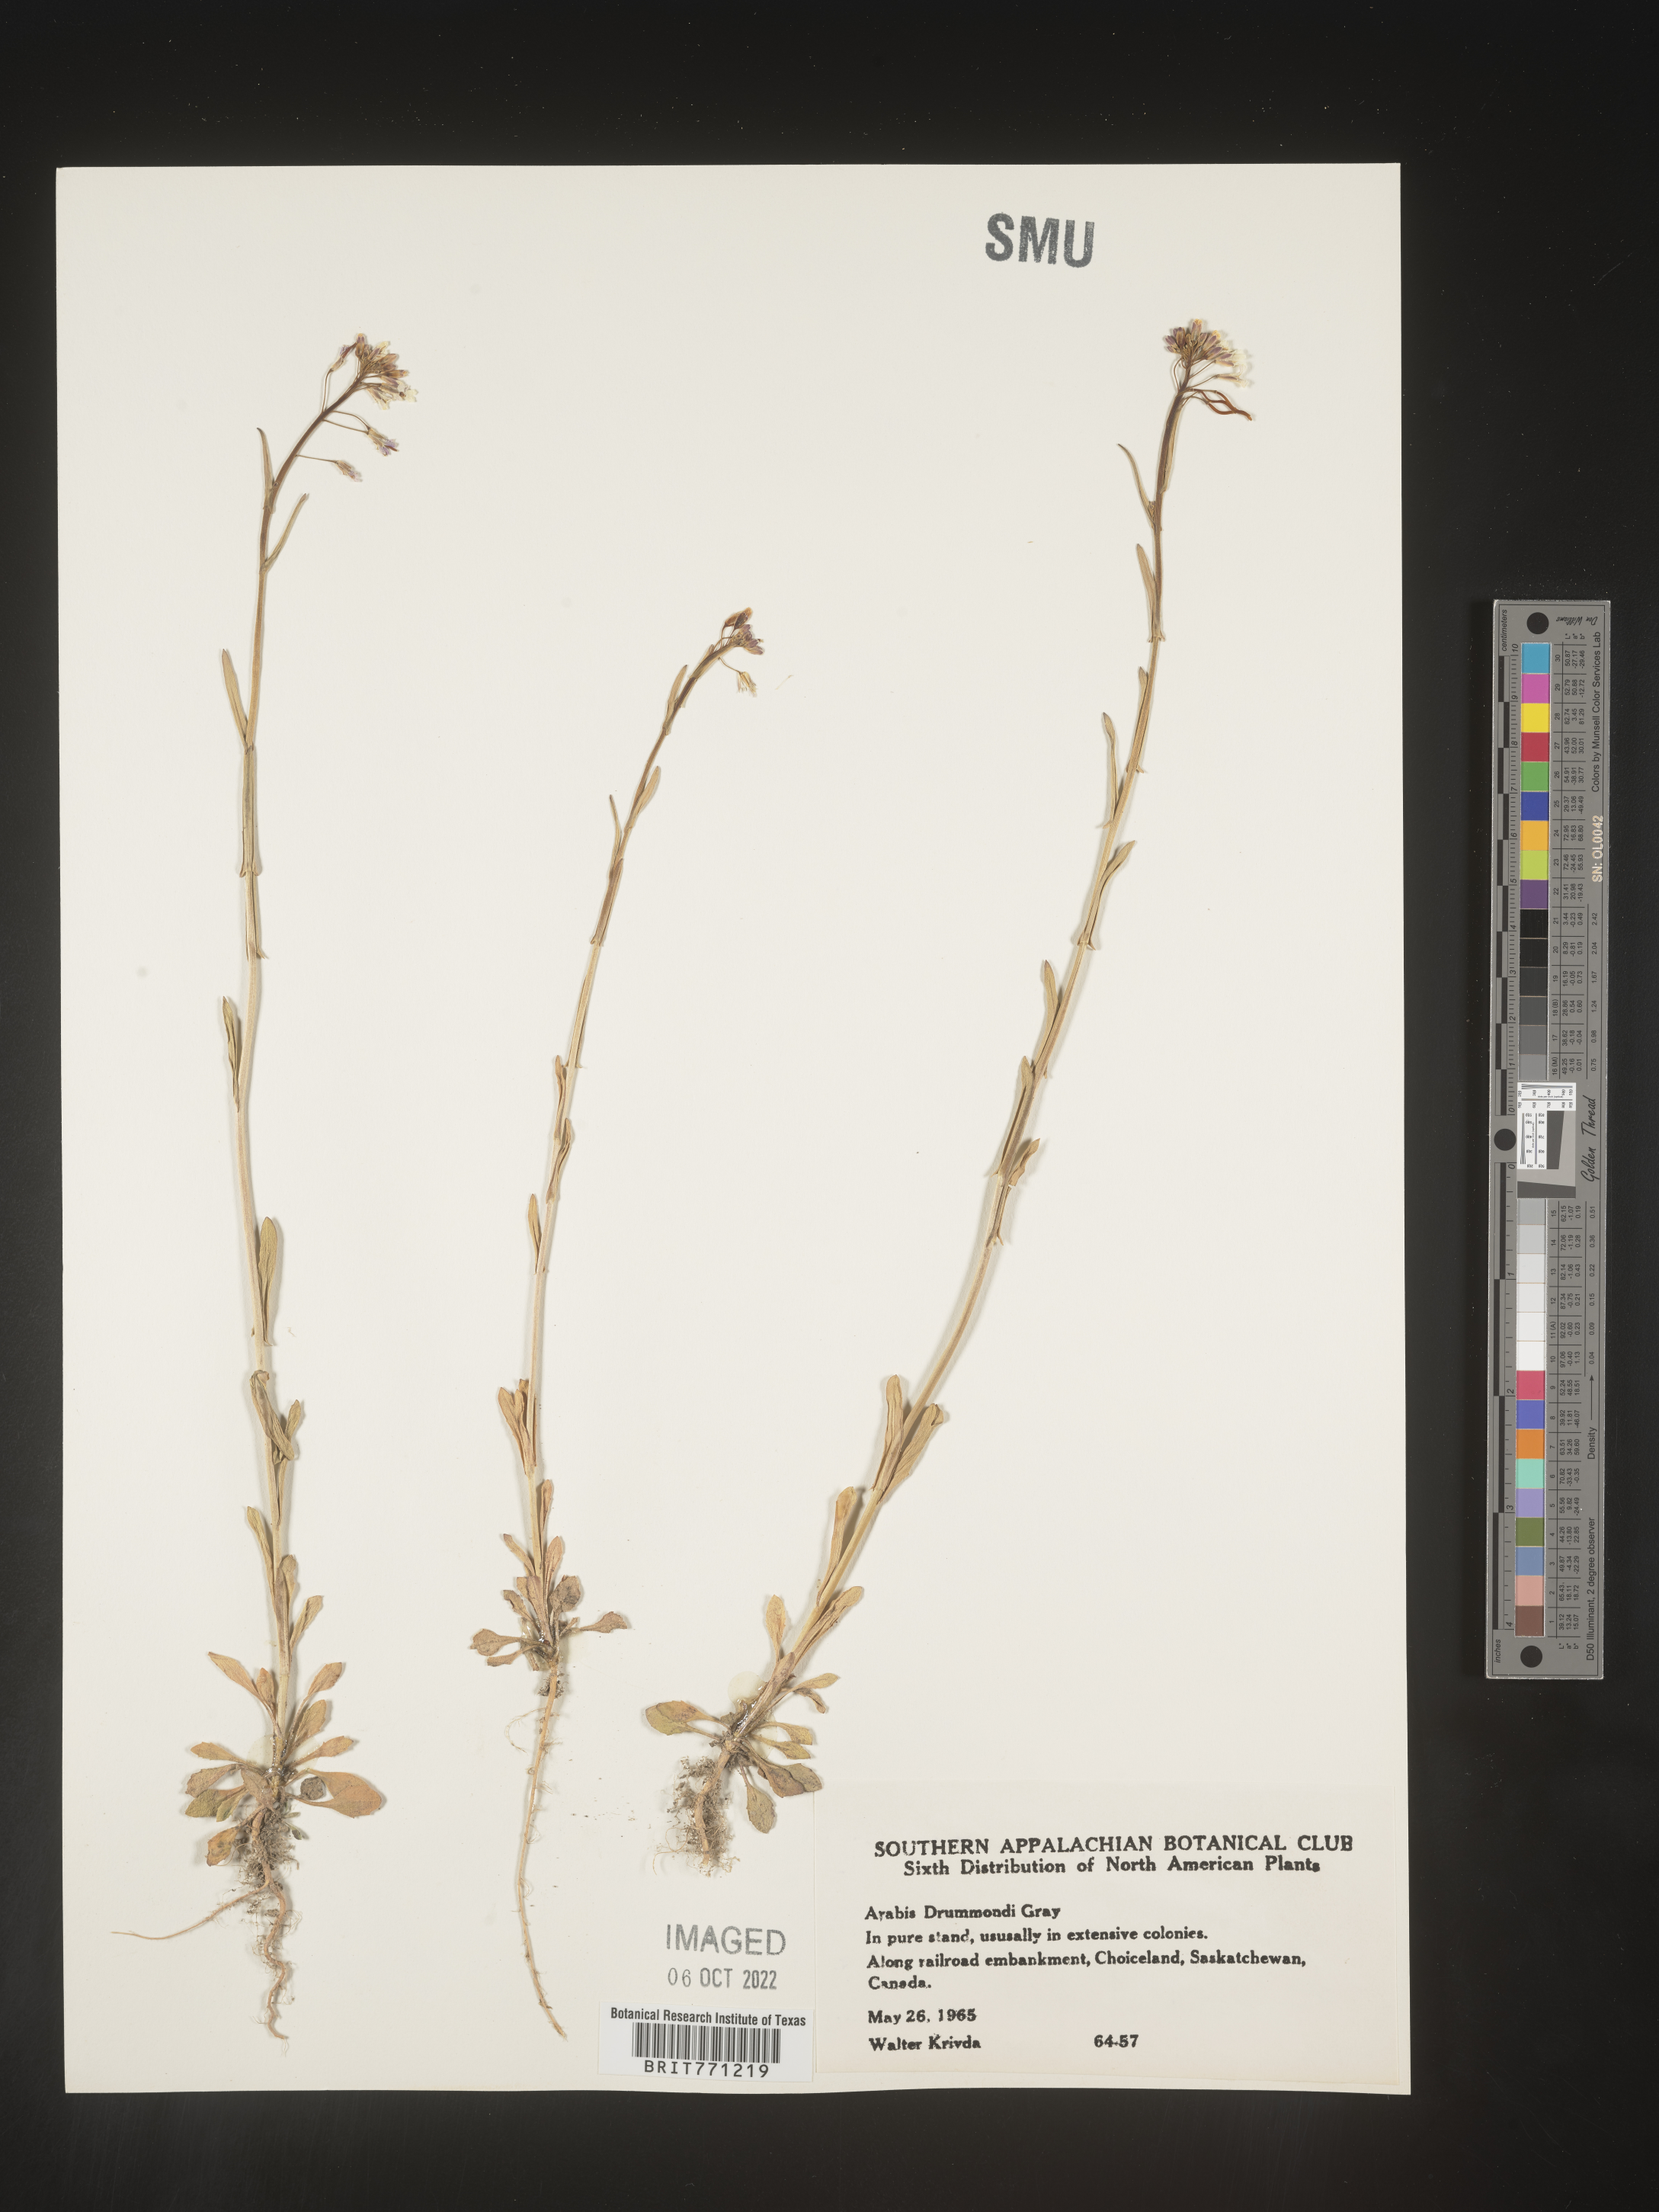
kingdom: Plantae
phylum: Tracheophyta
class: Magnoliopsida
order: Brassicales
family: Brassicaceae
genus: Boechera
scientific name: Boechera stricta
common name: Canadian rockcress
